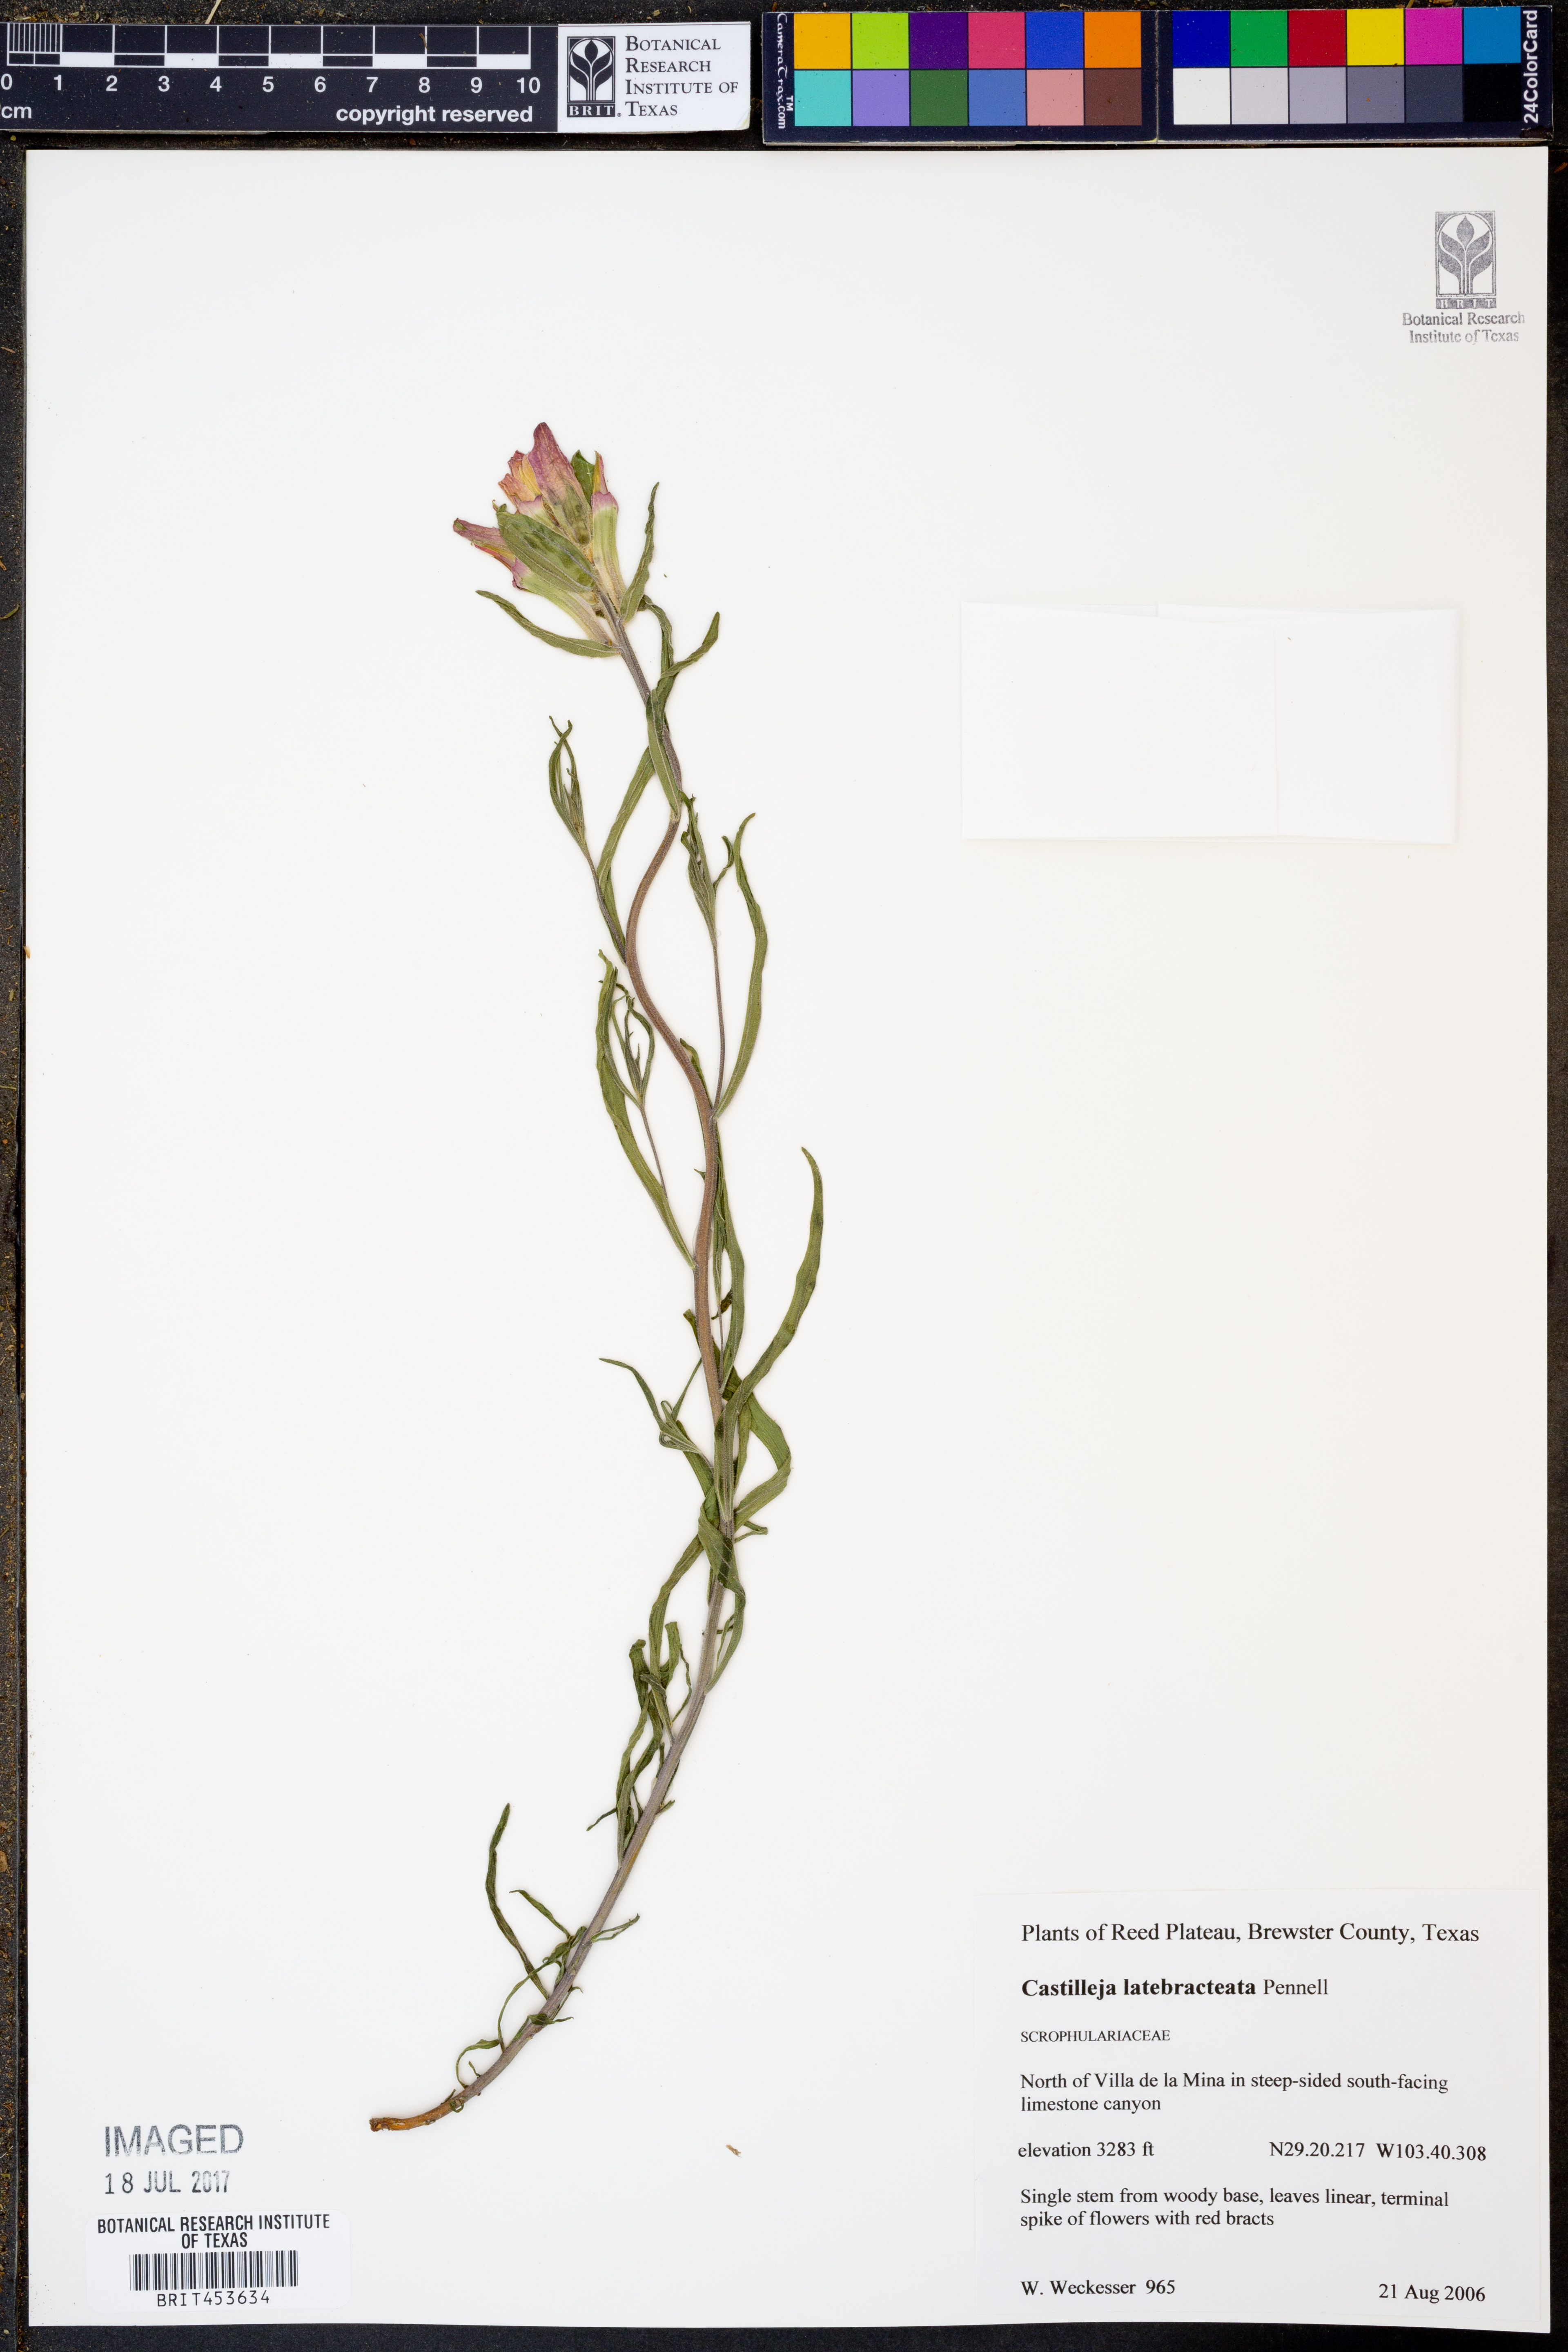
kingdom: Plantae
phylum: Tracheophyta
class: Magnoliopsida
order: Lamiales
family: Orobanchaceae
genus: Castilleja
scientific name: Castilleja rigida
